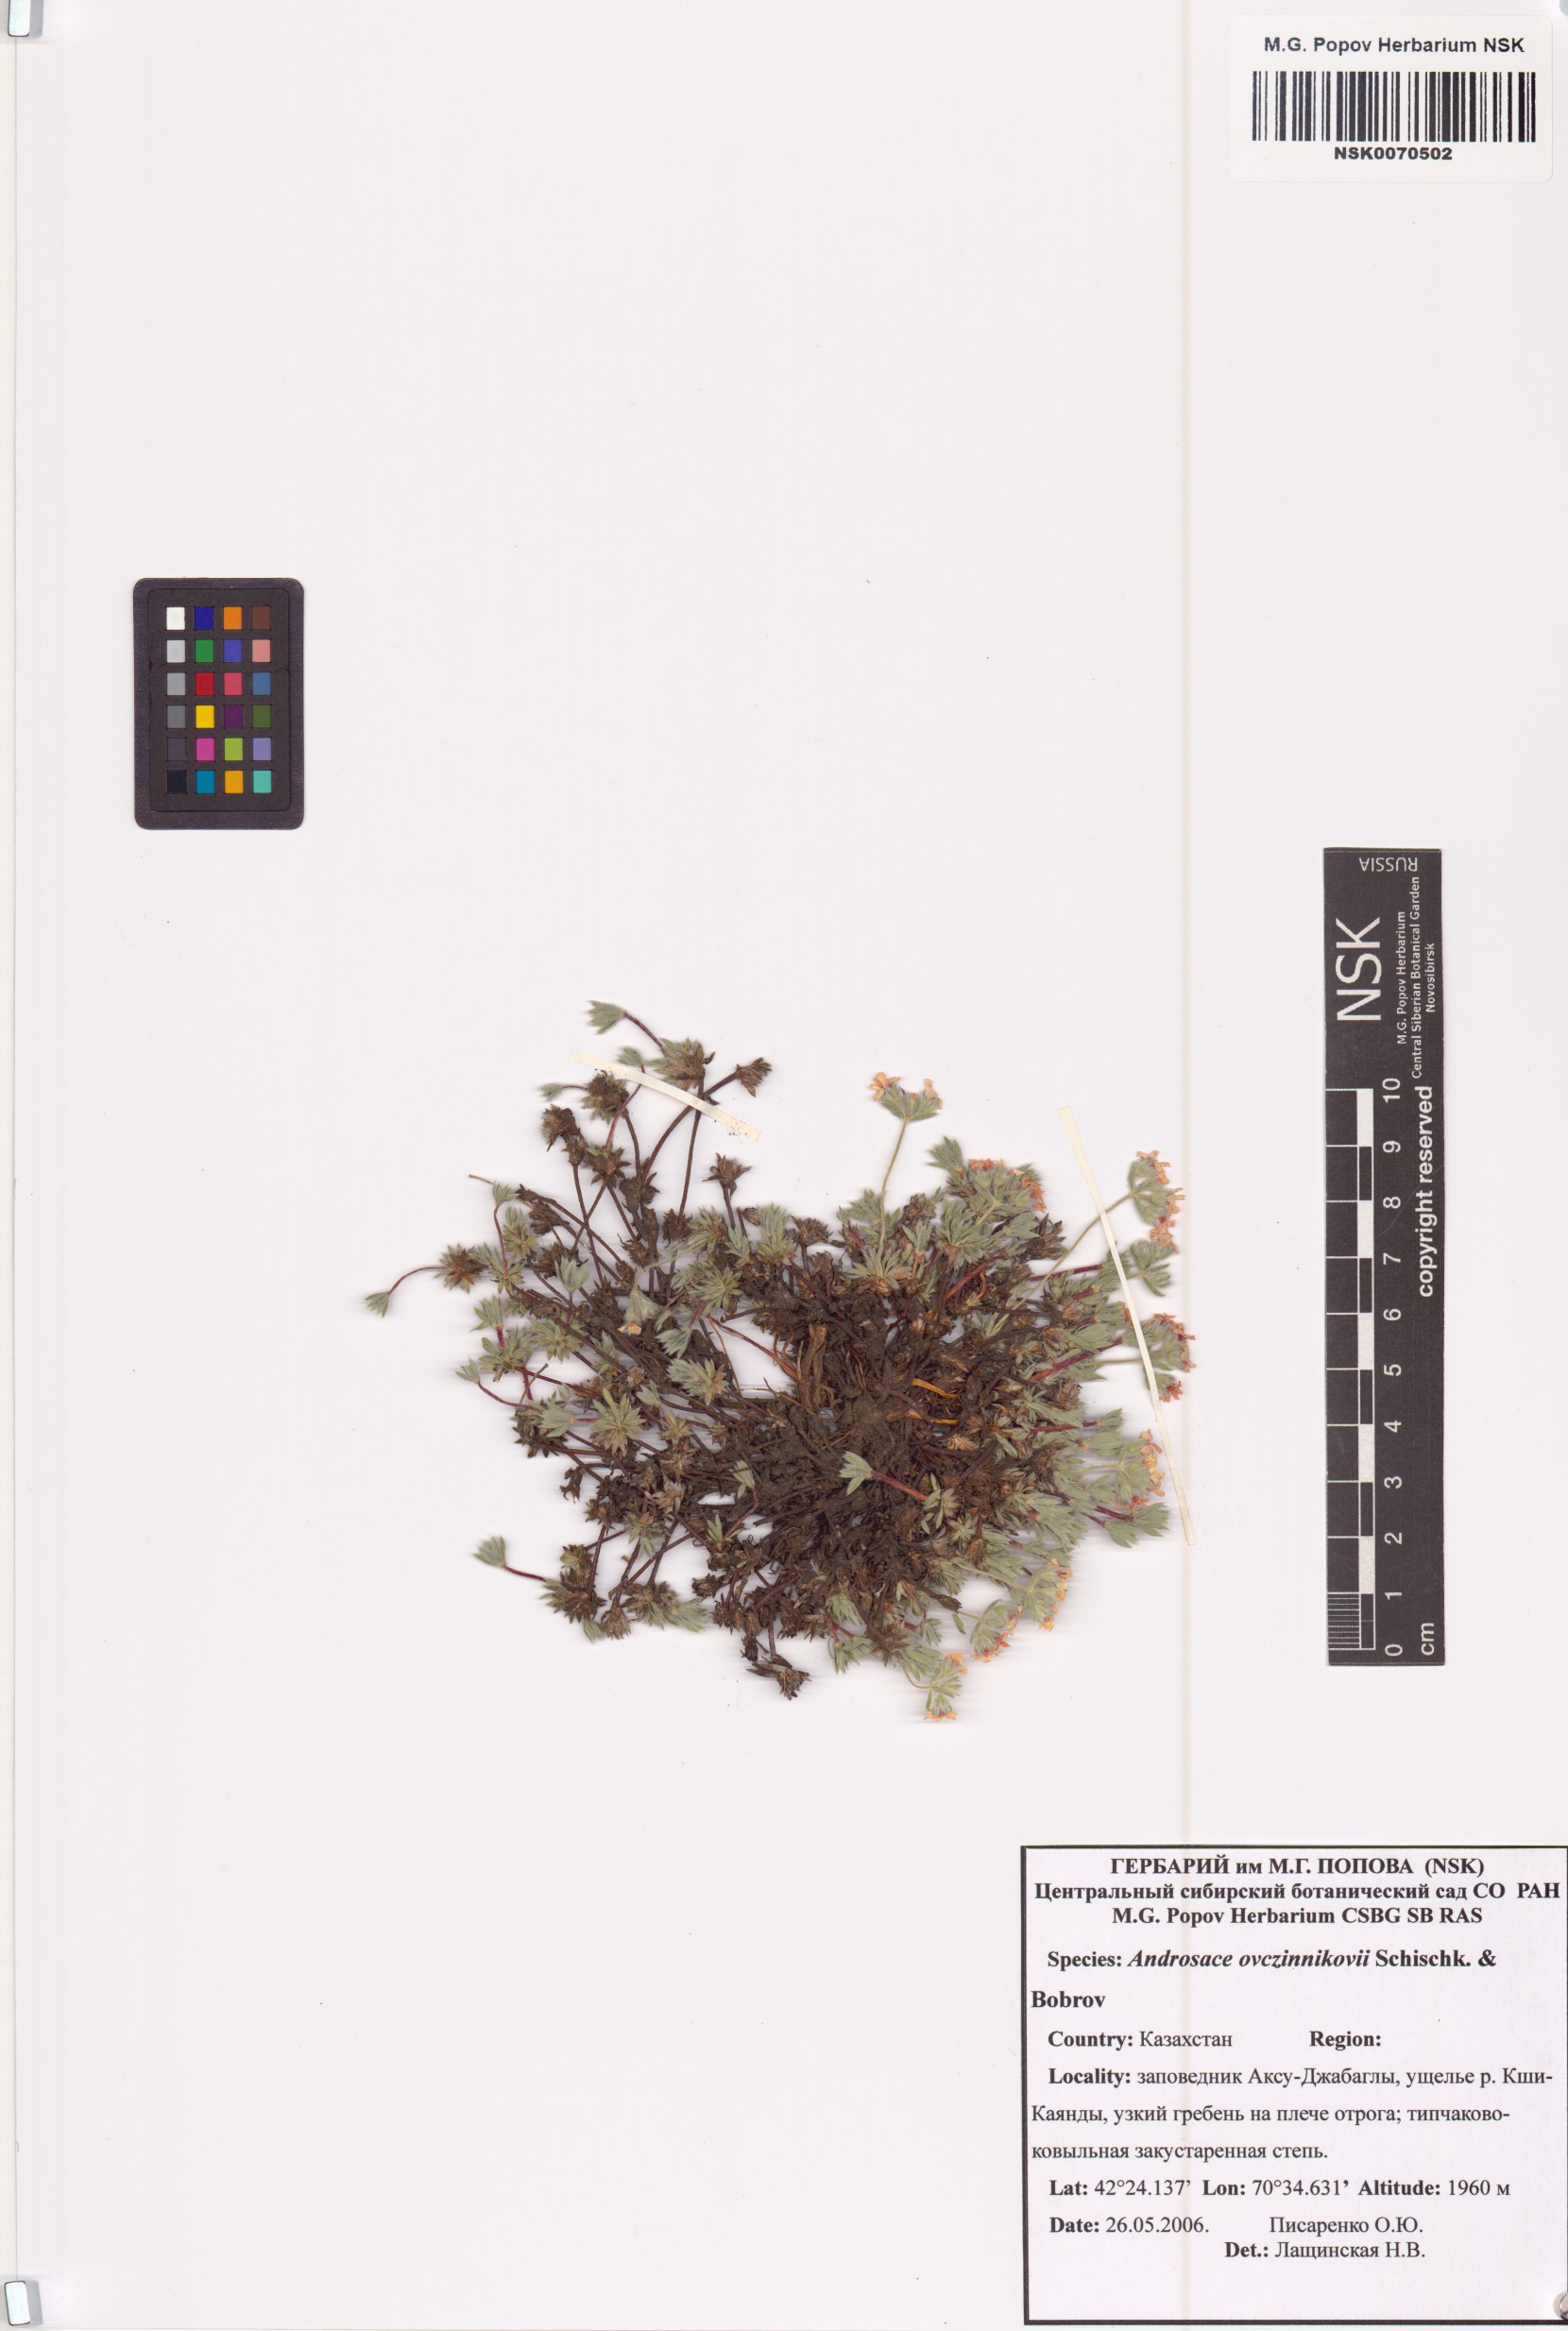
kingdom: Plantae
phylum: Tracheophyta
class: Magnoliopsida
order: Ericales
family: Primulaceae
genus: Androsace
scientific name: Androsace ovczinnikovii
